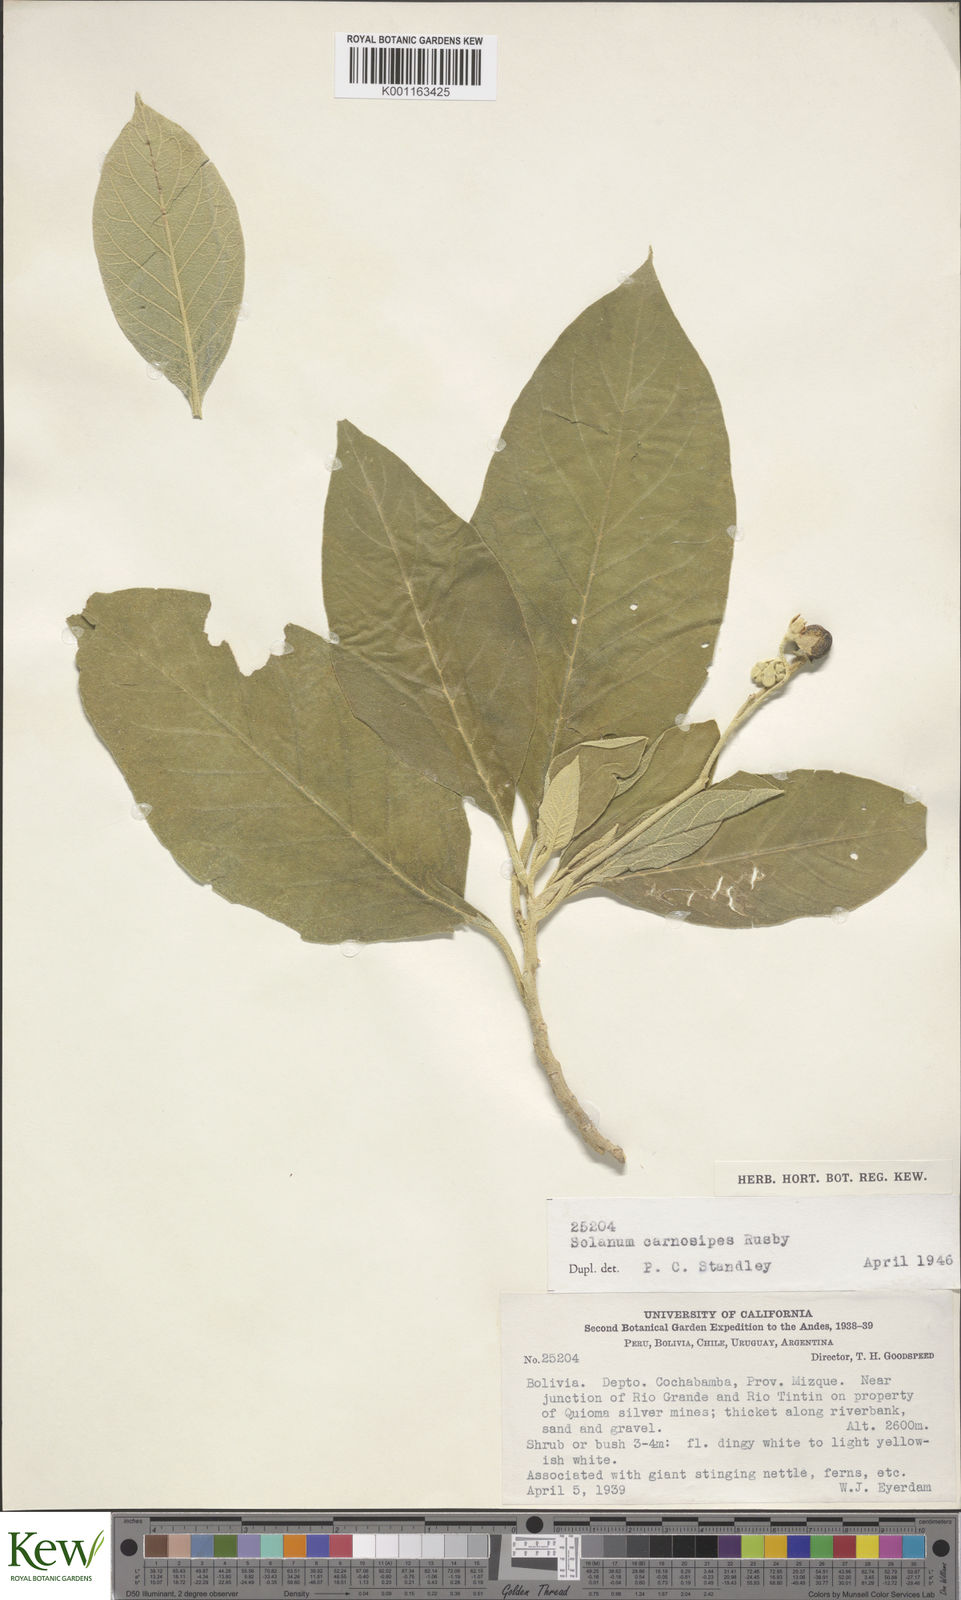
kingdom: Plantae
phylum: Tracheophyta
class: Magnoliopsida
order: Solanales
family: Solanaceae
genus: Solanum
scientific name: Solanum riparium
